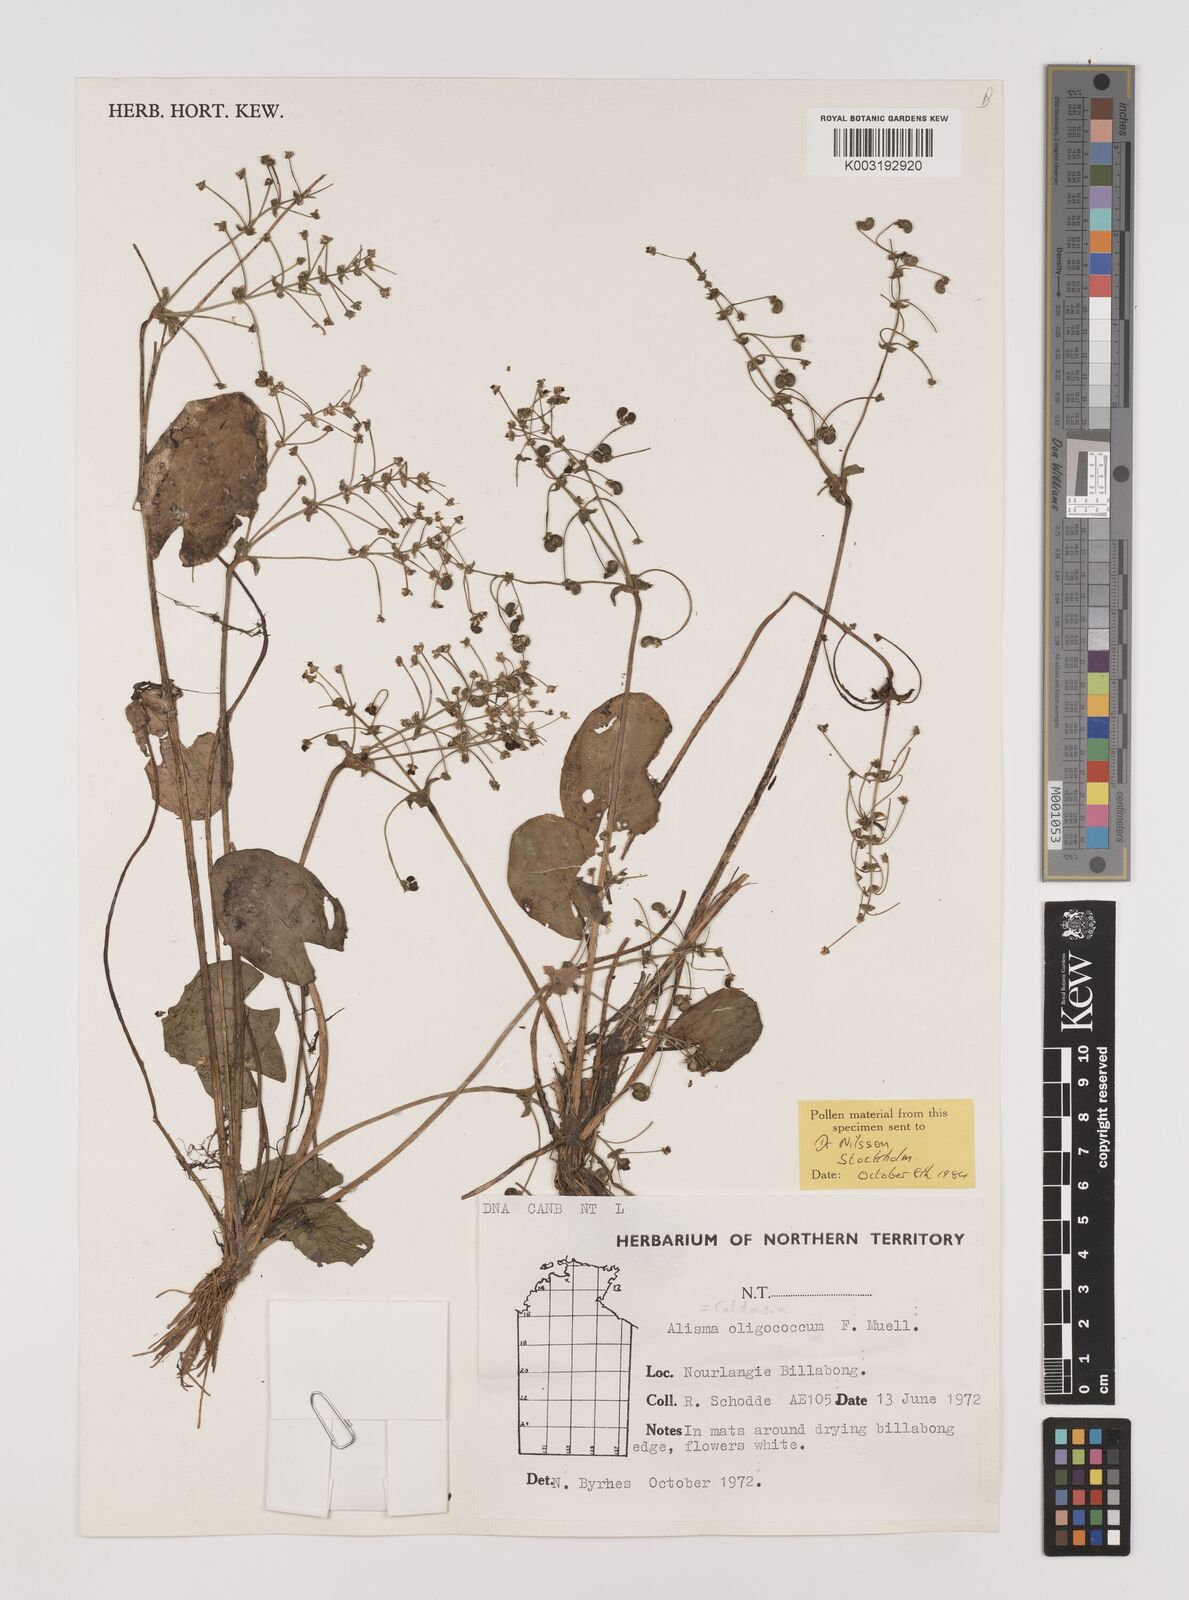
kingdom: Plantae
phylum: Tracheophyta
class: Liliopsida
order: Alismatales
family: Alismataceae
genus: Albidella
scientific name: Albidella oligococca
